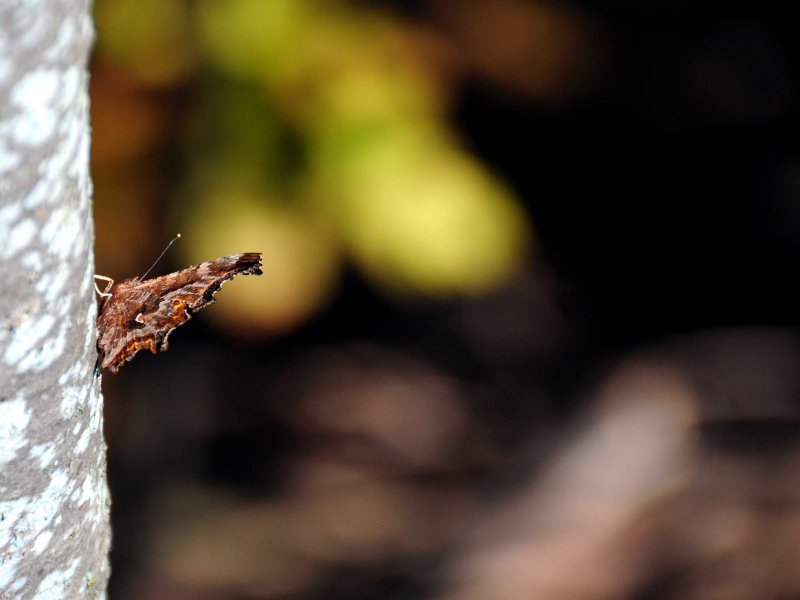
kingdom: Animalia
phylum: Arthropoda
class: Insecta
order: Lepidoptera
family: Nymphalidae
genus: Polygonia
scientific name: Polygonia comma
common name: Eastern Comma
